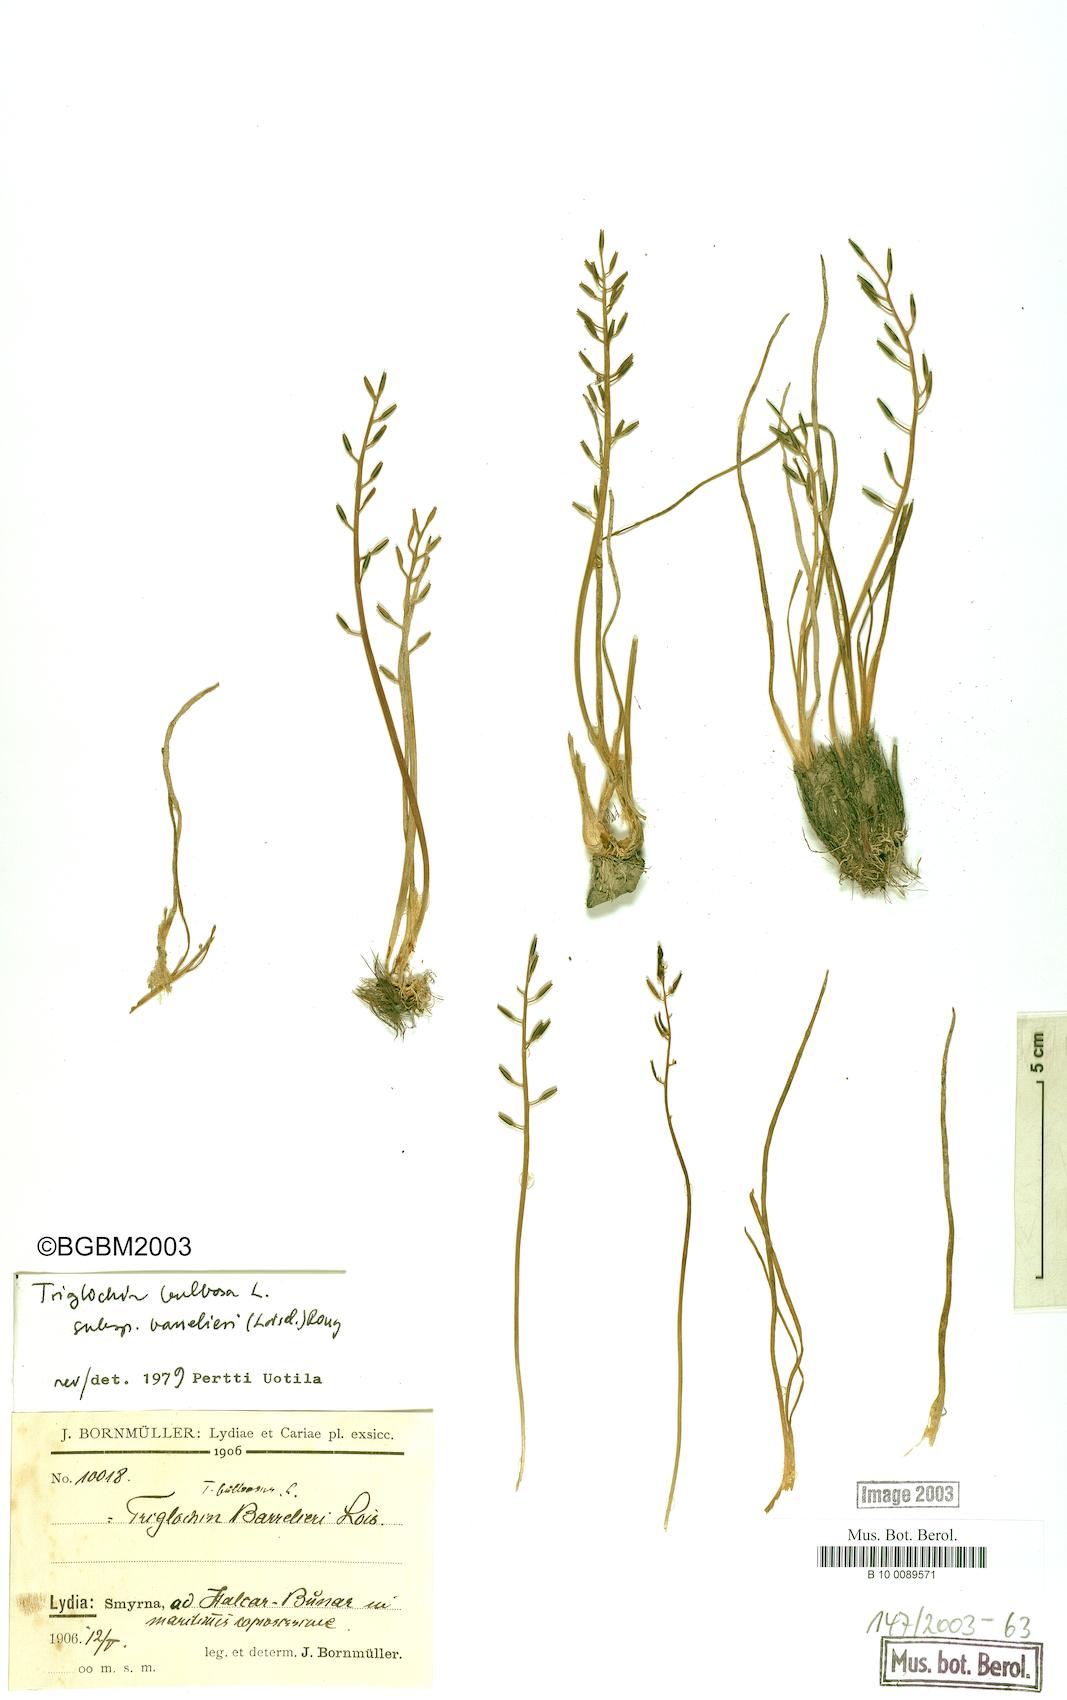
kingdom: Plantae
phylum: Tracheophyta
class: Liliopsida
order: Alismatales
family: Juncaginaceae
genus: Triglochin
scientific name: Triglochin barrelieri
